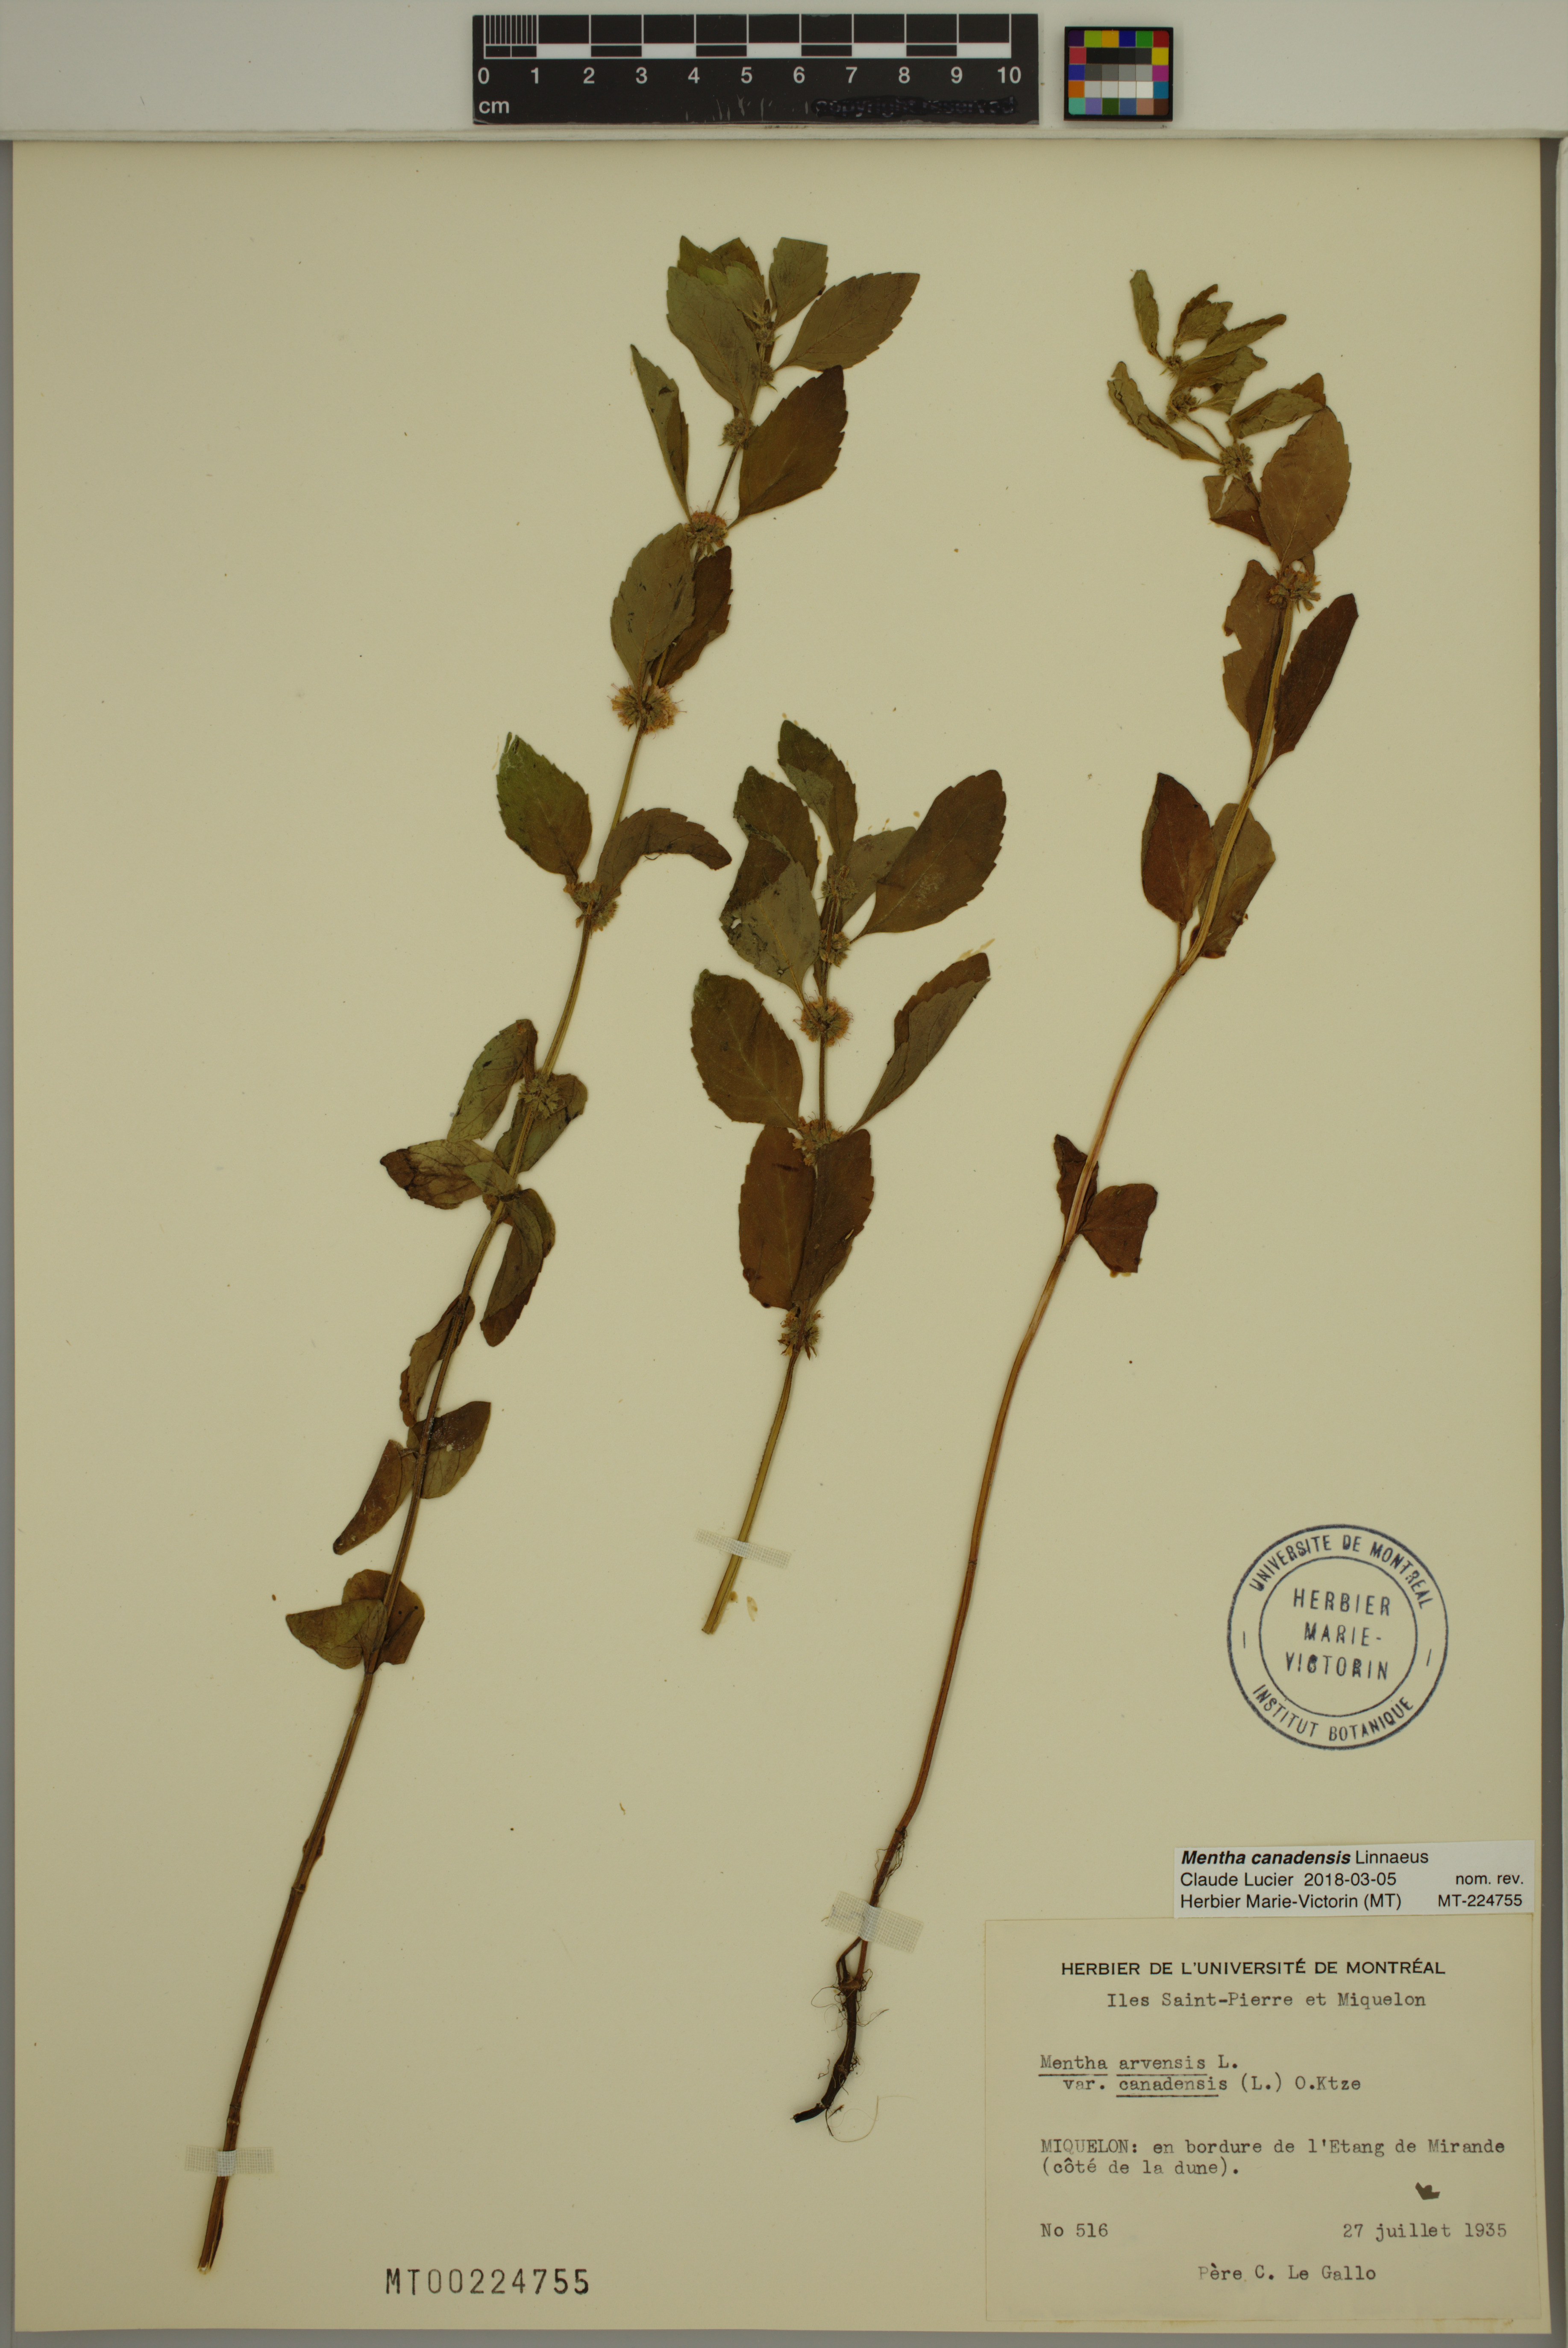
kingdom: Plantae
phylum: Tracheophyta
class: Magnoliopsida
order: Lamiales
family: Lamiaceae
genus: Mentha
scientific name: Mentha canadensis
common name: American corn mint
